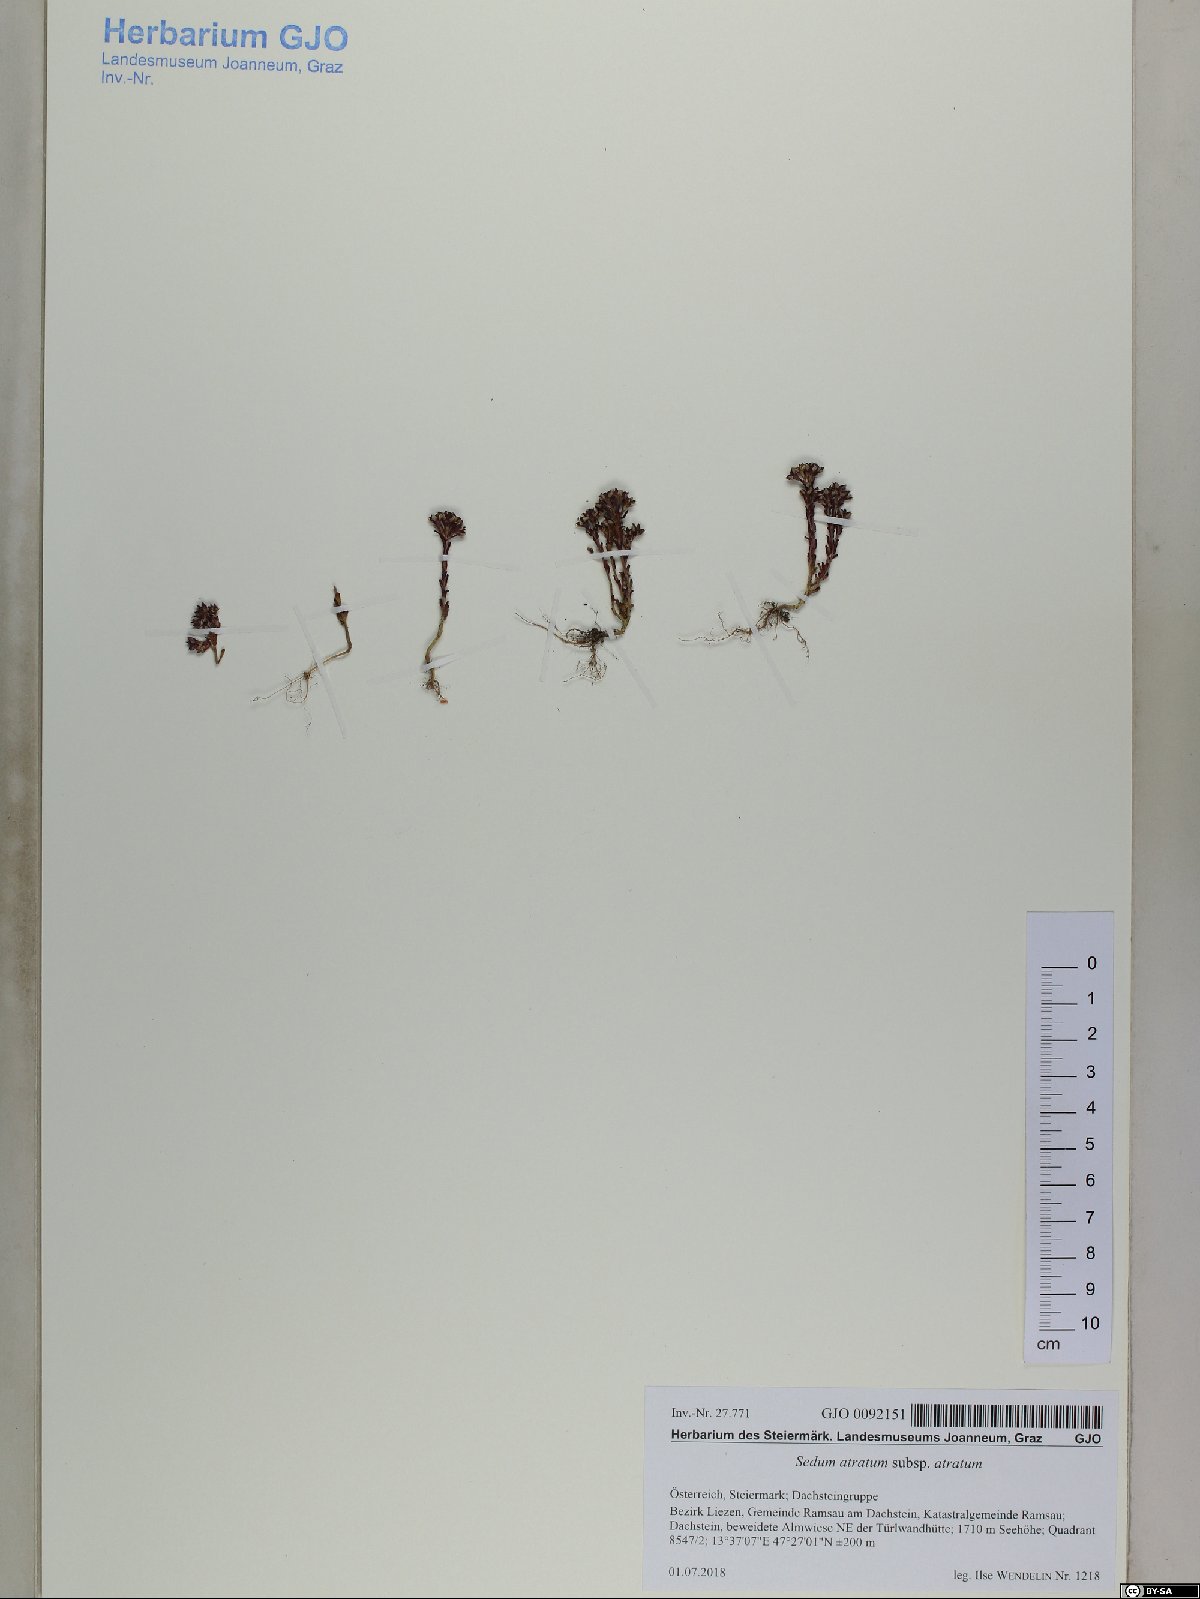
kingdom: Plantae
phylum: Tracheophyta
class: Magnoliopsida
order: Saxifragales
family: Crassulaceae
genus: Sedum
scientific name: Sedum atratum
